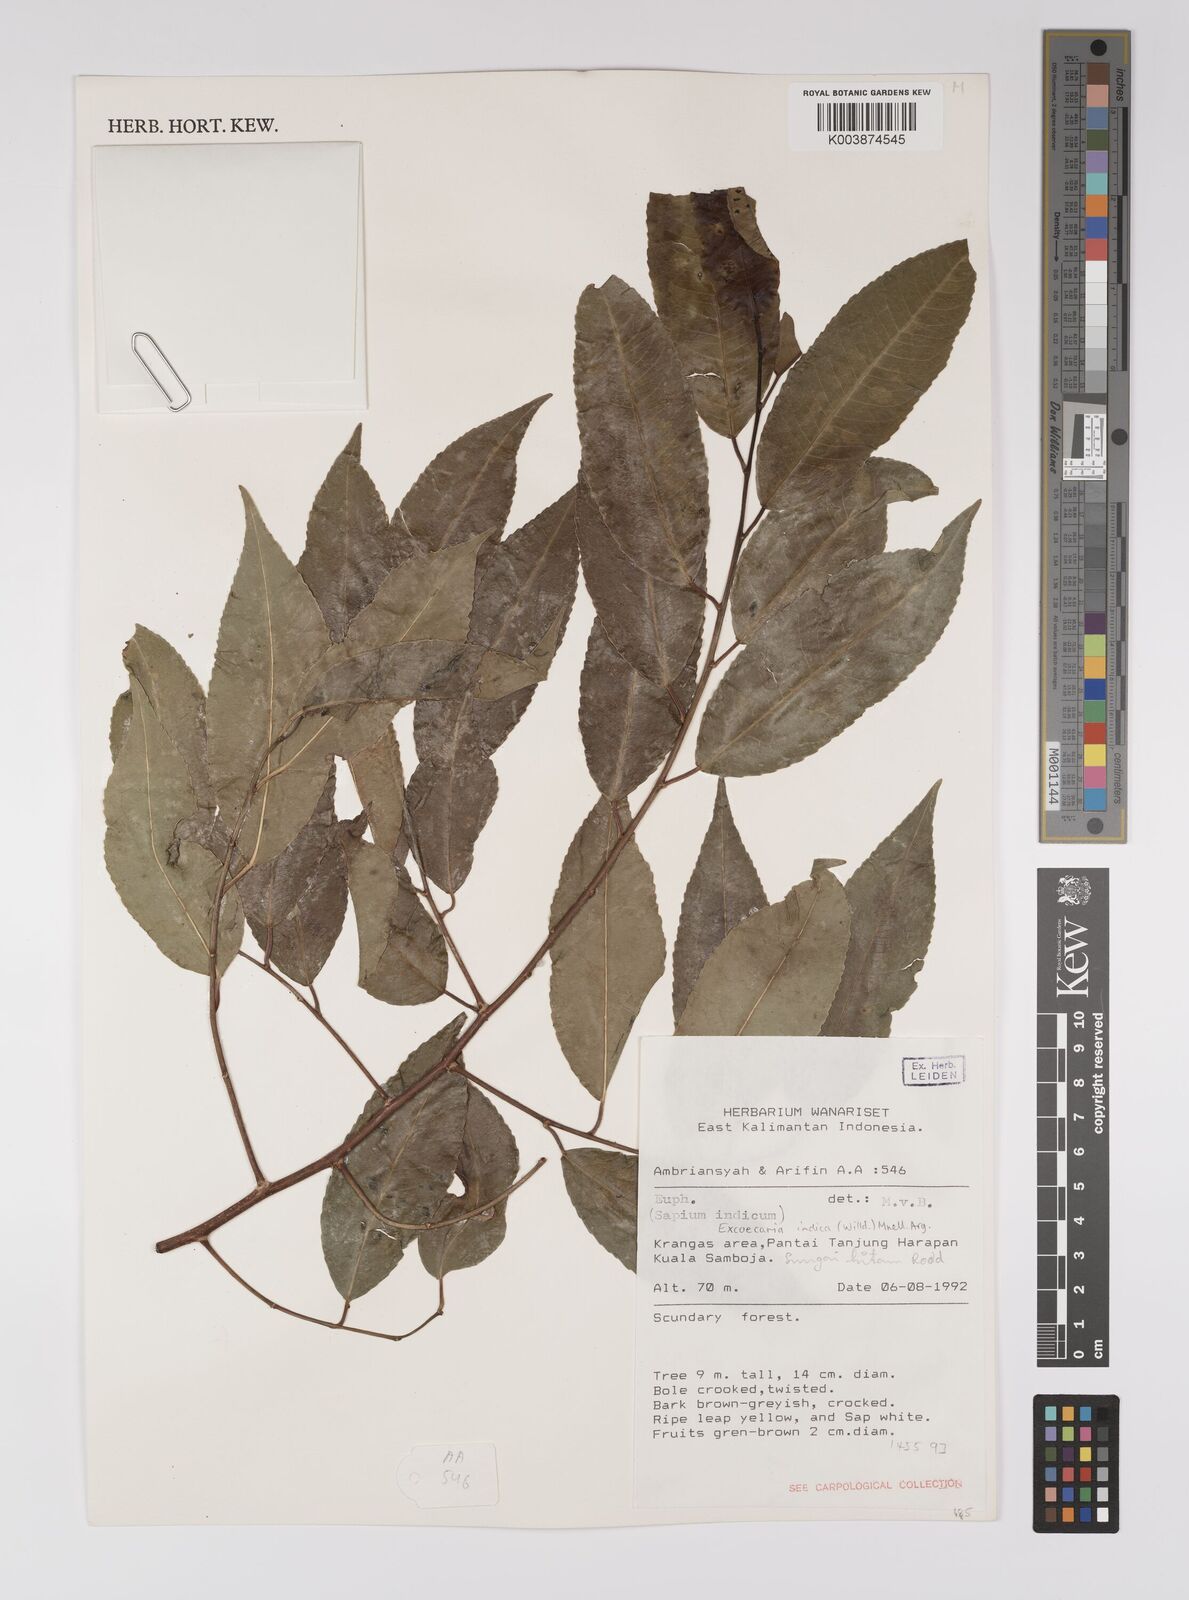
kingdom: Plantae
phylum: Tracheophyta
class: Magnoliopsida
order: Malpighiales
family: Euphorbiaceae
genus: Shirakiopsis
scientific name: Shirakiopsis indica
